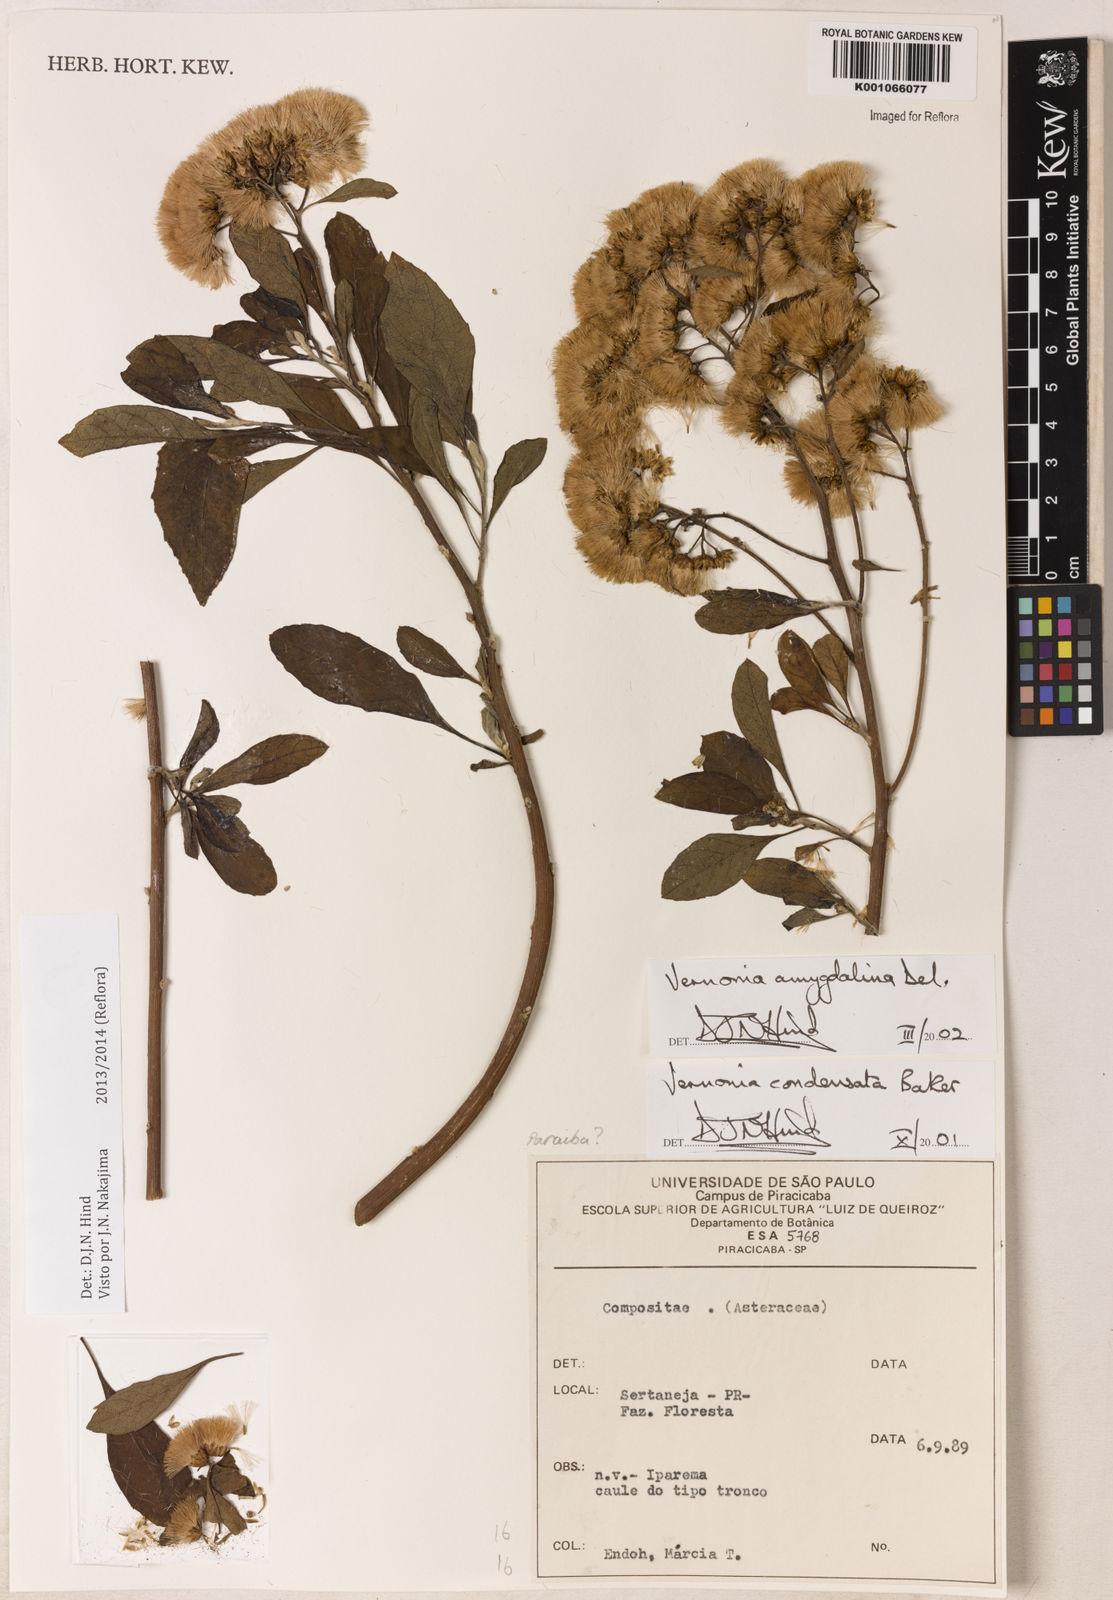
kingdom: Plantae
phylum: Tracheophyta
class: Magnoliopsida
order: Asterales
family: Asteraceae
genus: Gymnanthemum
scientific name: Gymnanthemum amygdalinum
